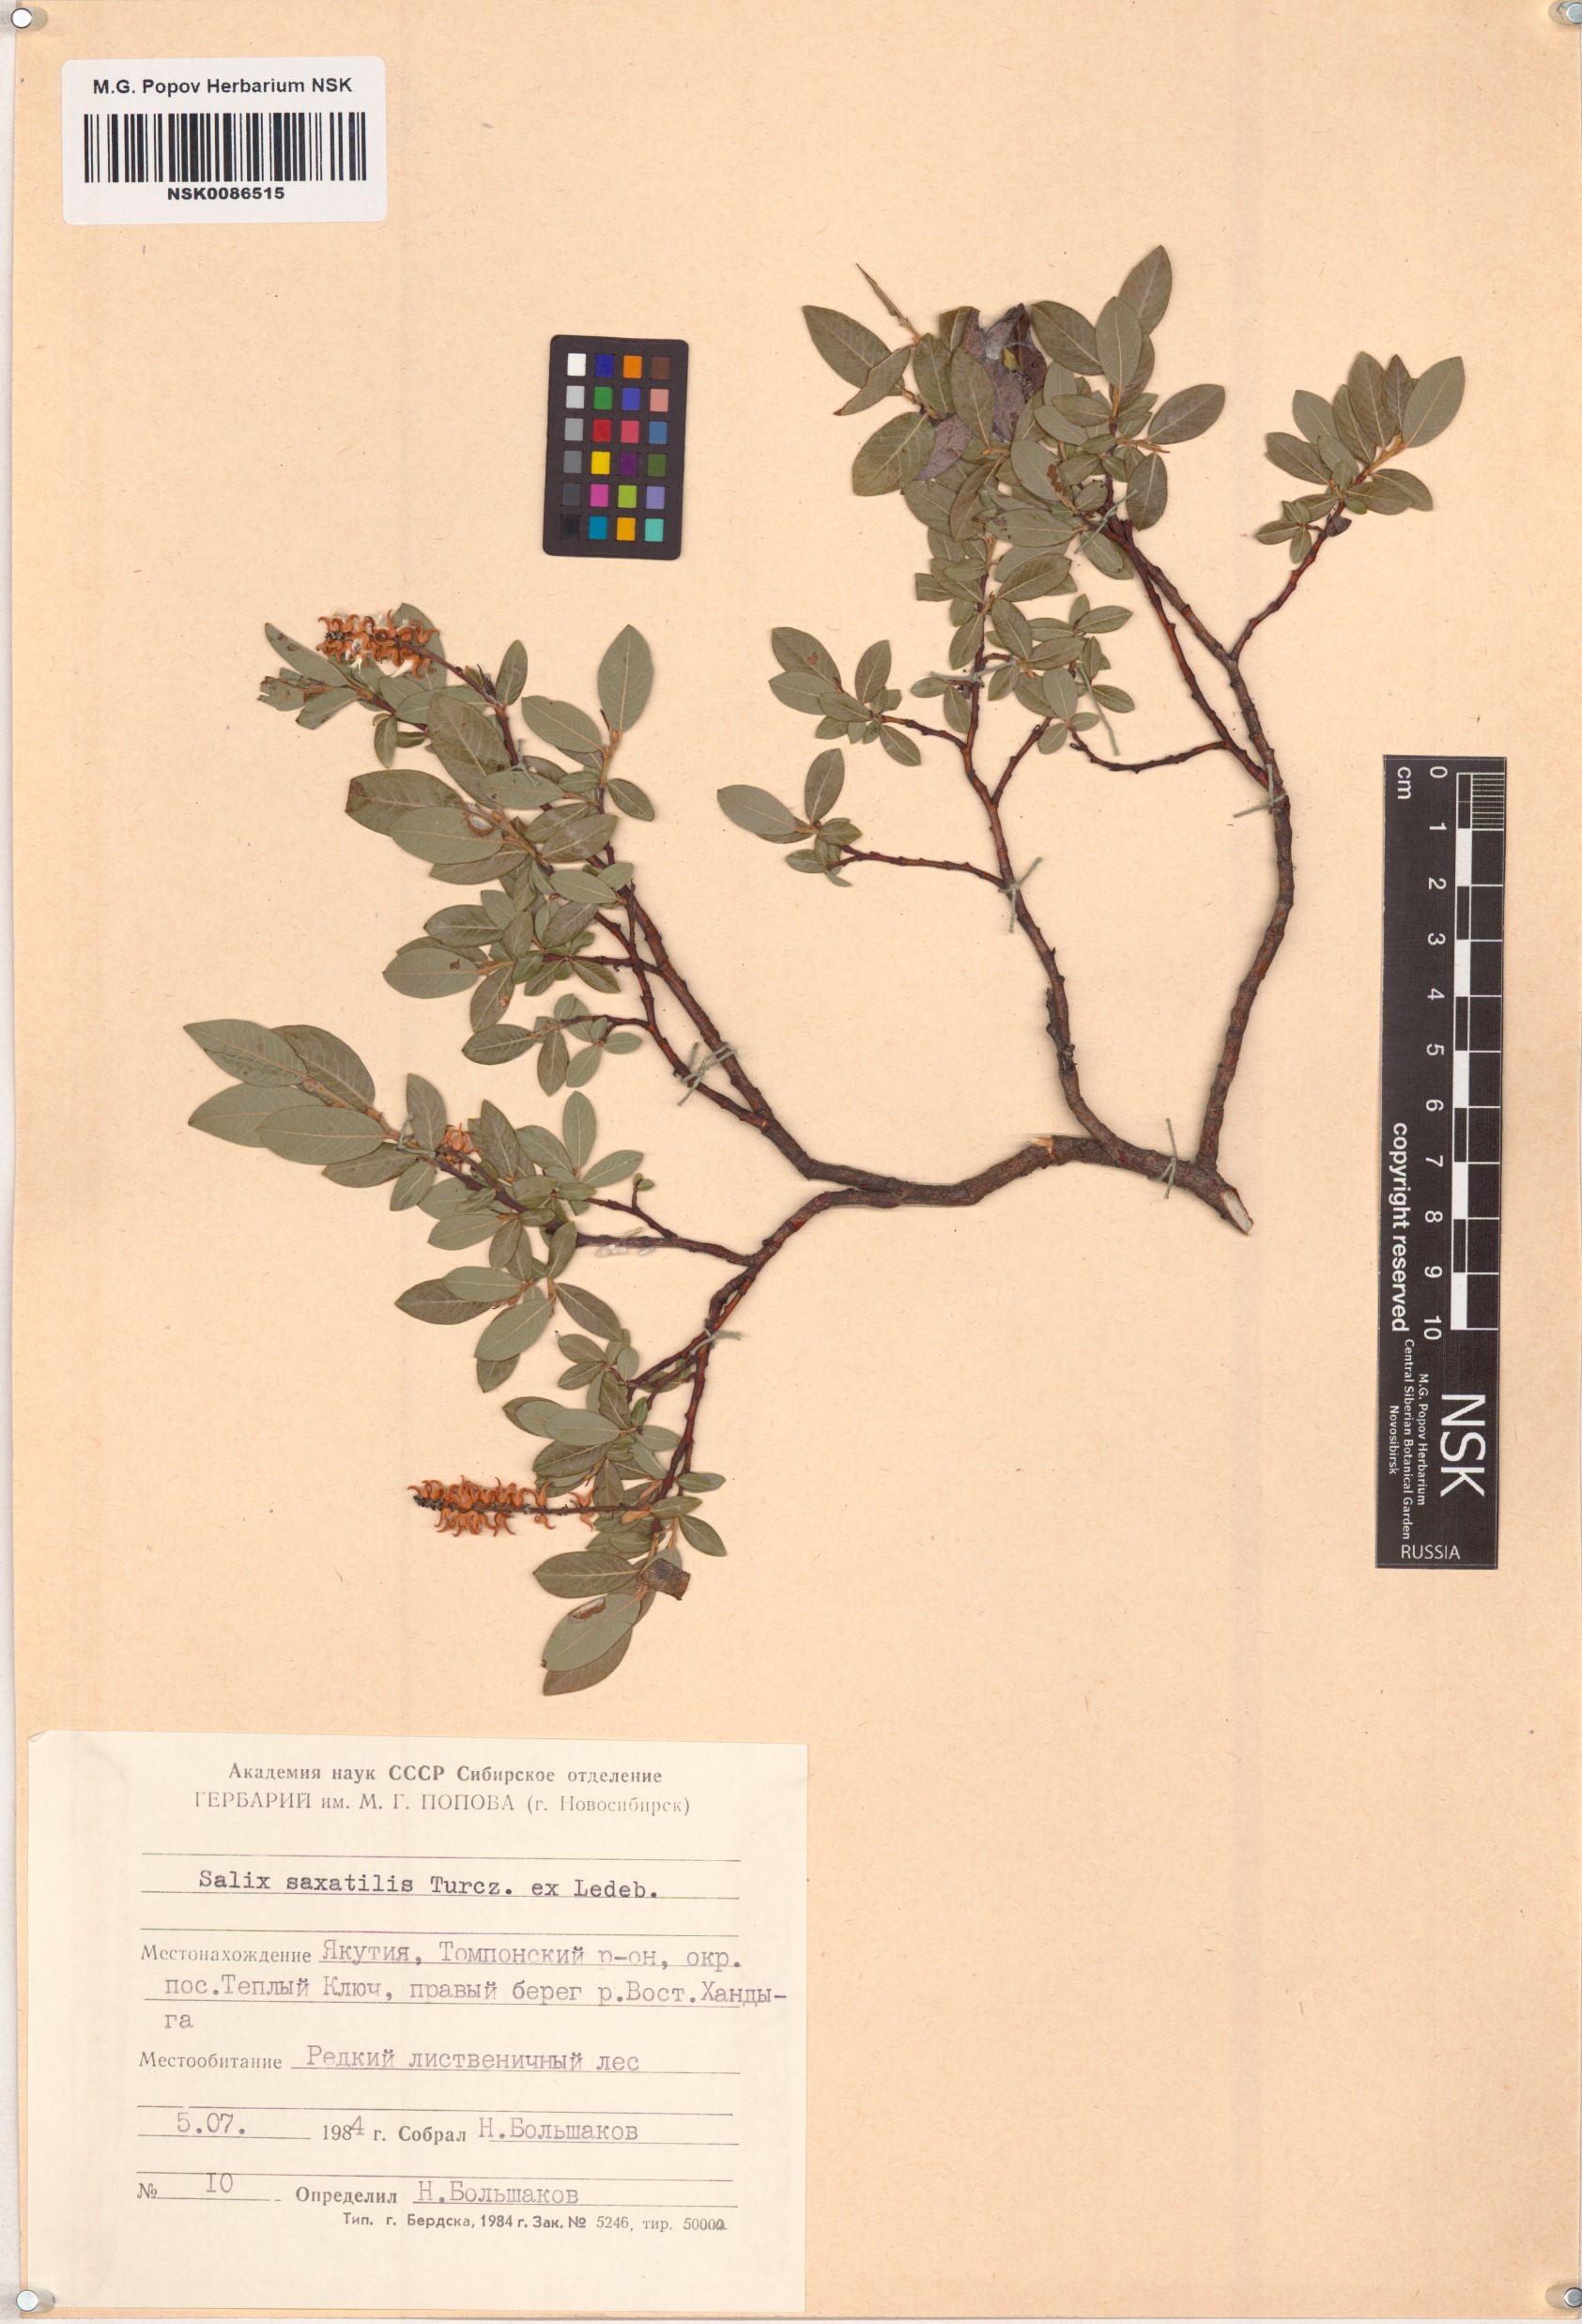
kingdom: Plantae
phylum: Tracheophyta
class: Magnoliopsida
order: Malpighiales
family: Salicaceae
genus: Salix
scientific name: Salix saxatilis
